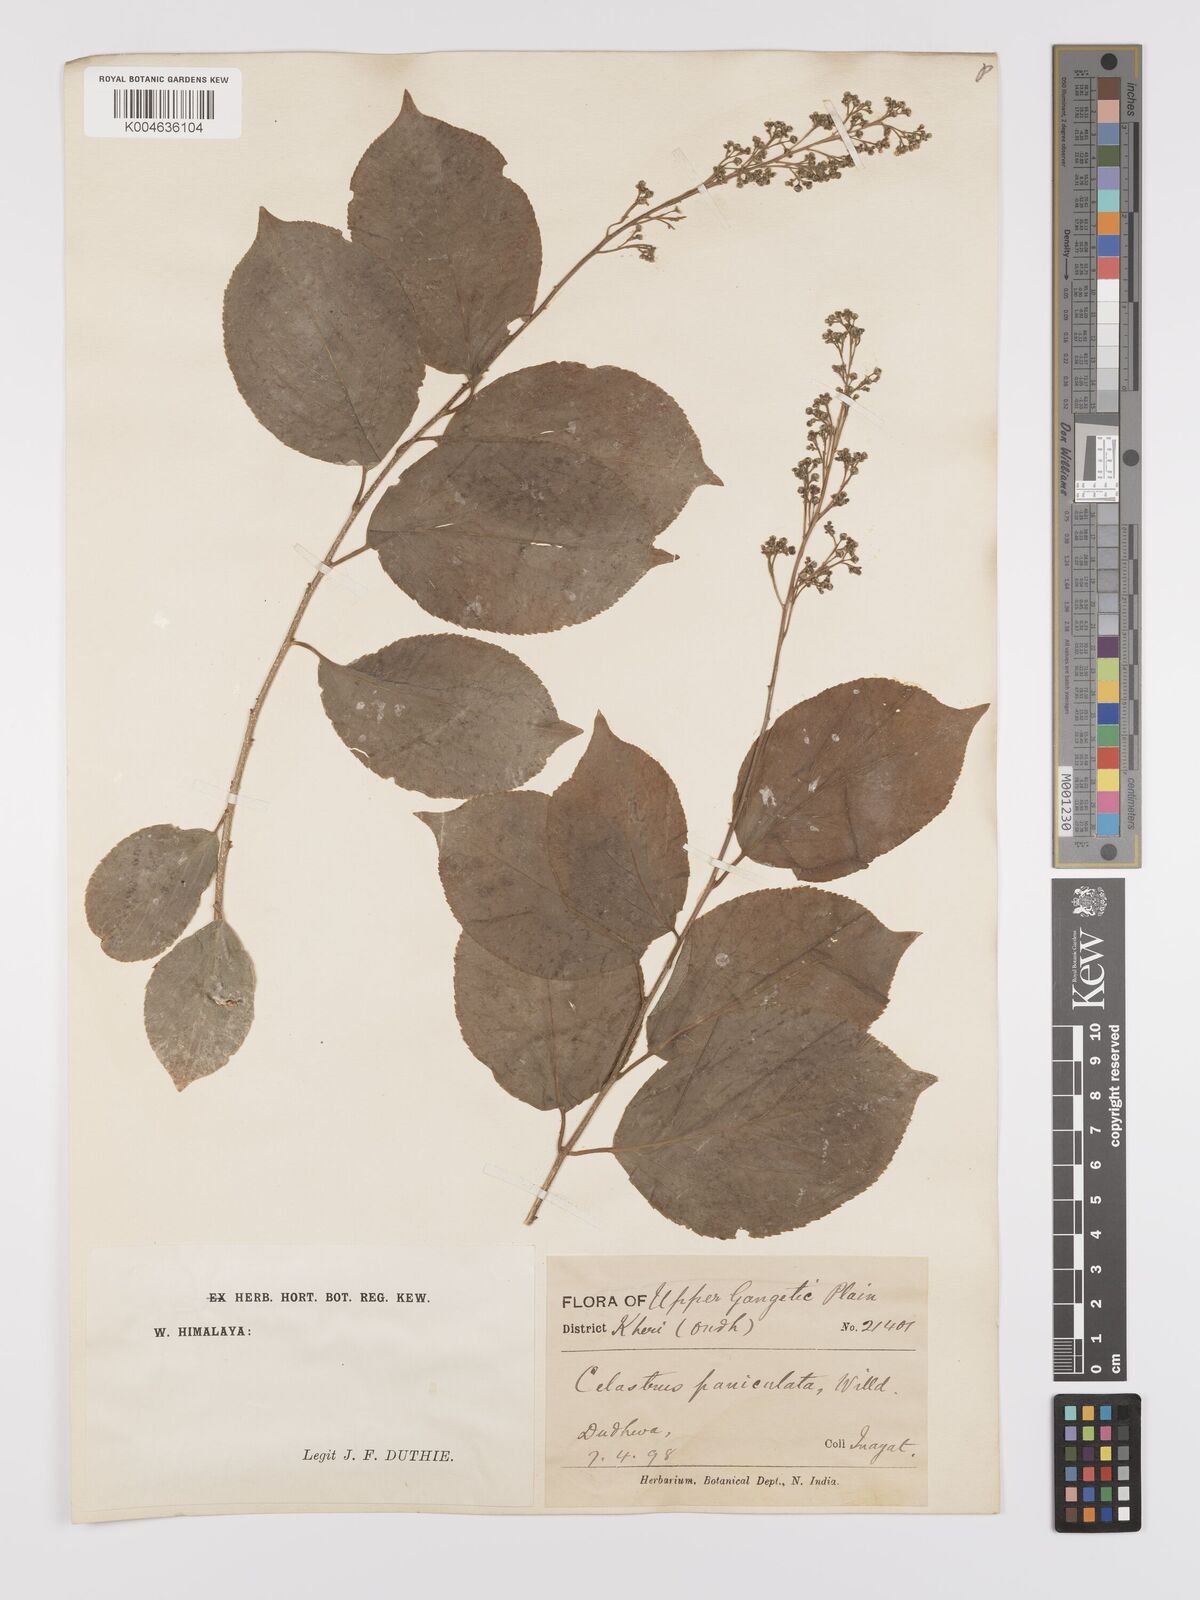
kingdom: Plantae
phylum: Tracheophyta
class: Magnoliopsida
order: Celastrales
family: Celastraceae
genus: Celastrus
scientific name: Celastrus paniculatus
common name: Oriental bittersweet; staff vine
